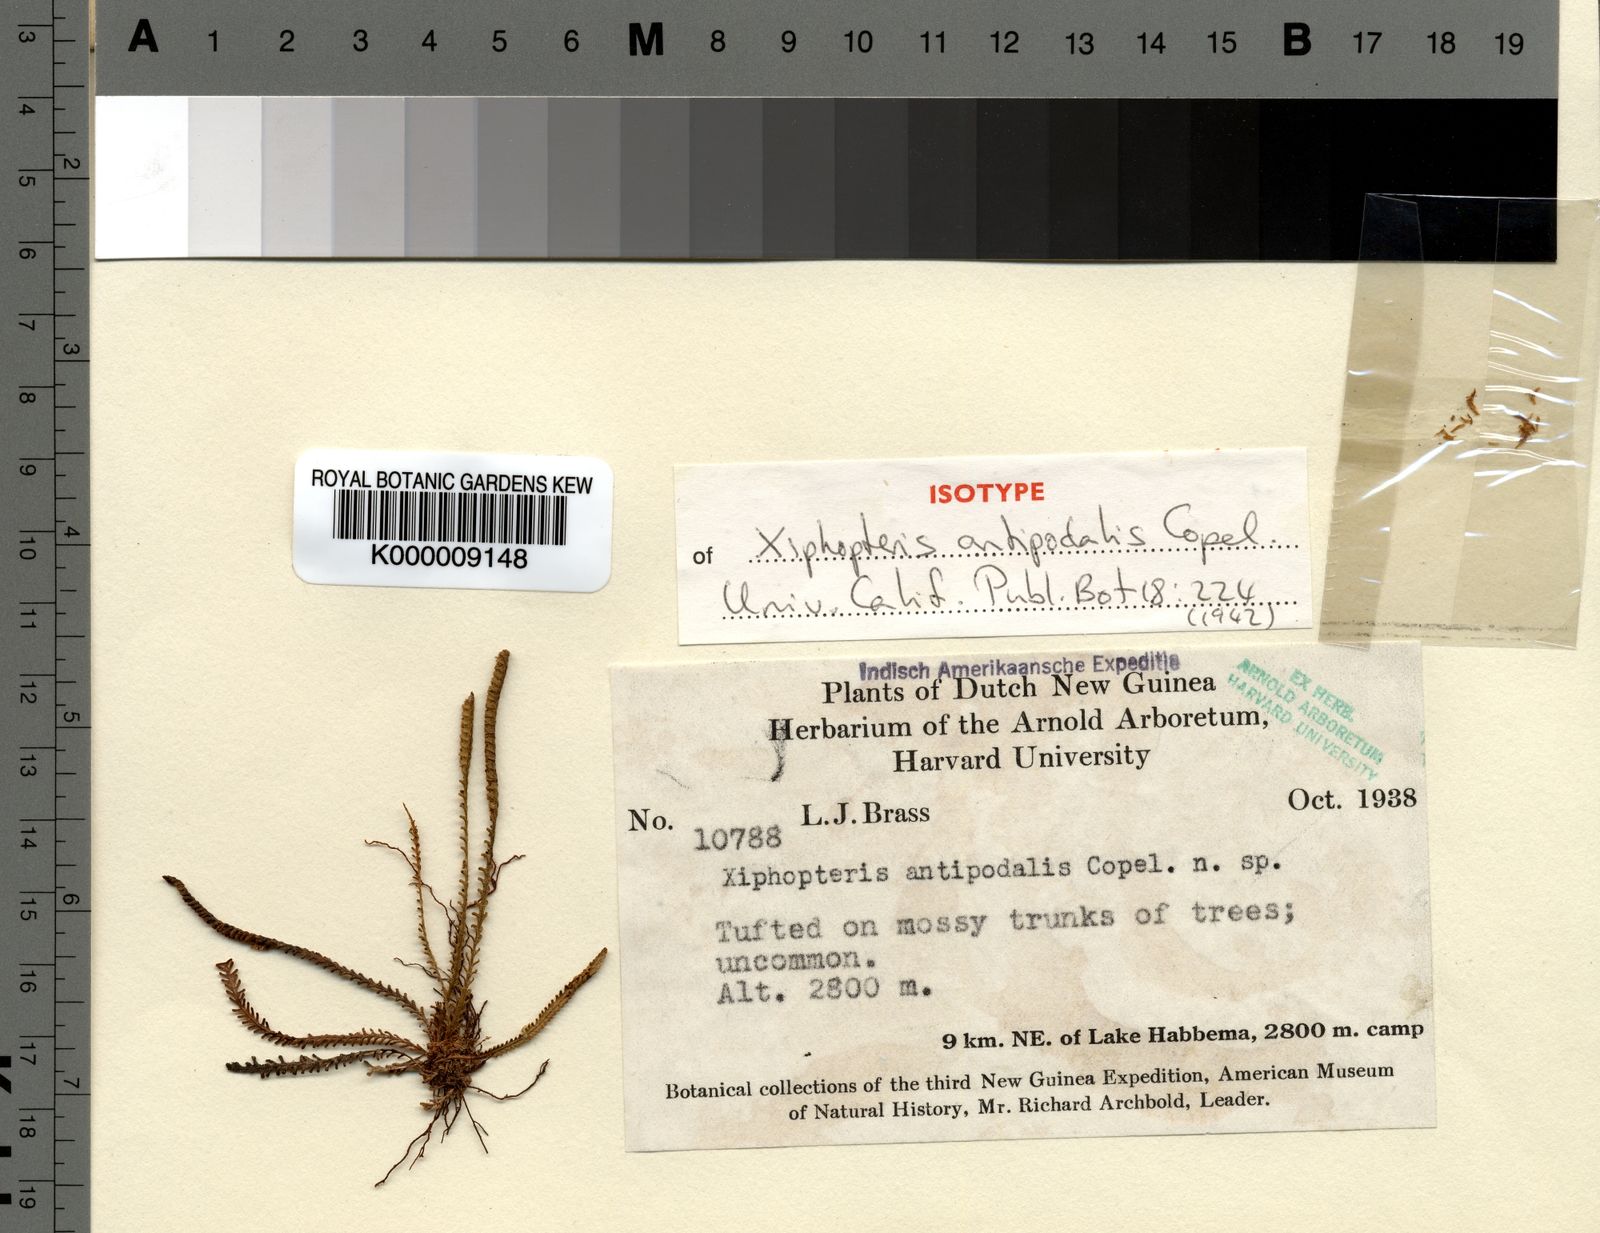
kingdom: Plantae
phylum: Tracheophyta
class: Polypodiopsida
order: Polypodiales
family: Polypodiaceae
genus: Oreogrammitis
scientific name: Oreogrammitis antipodalis
